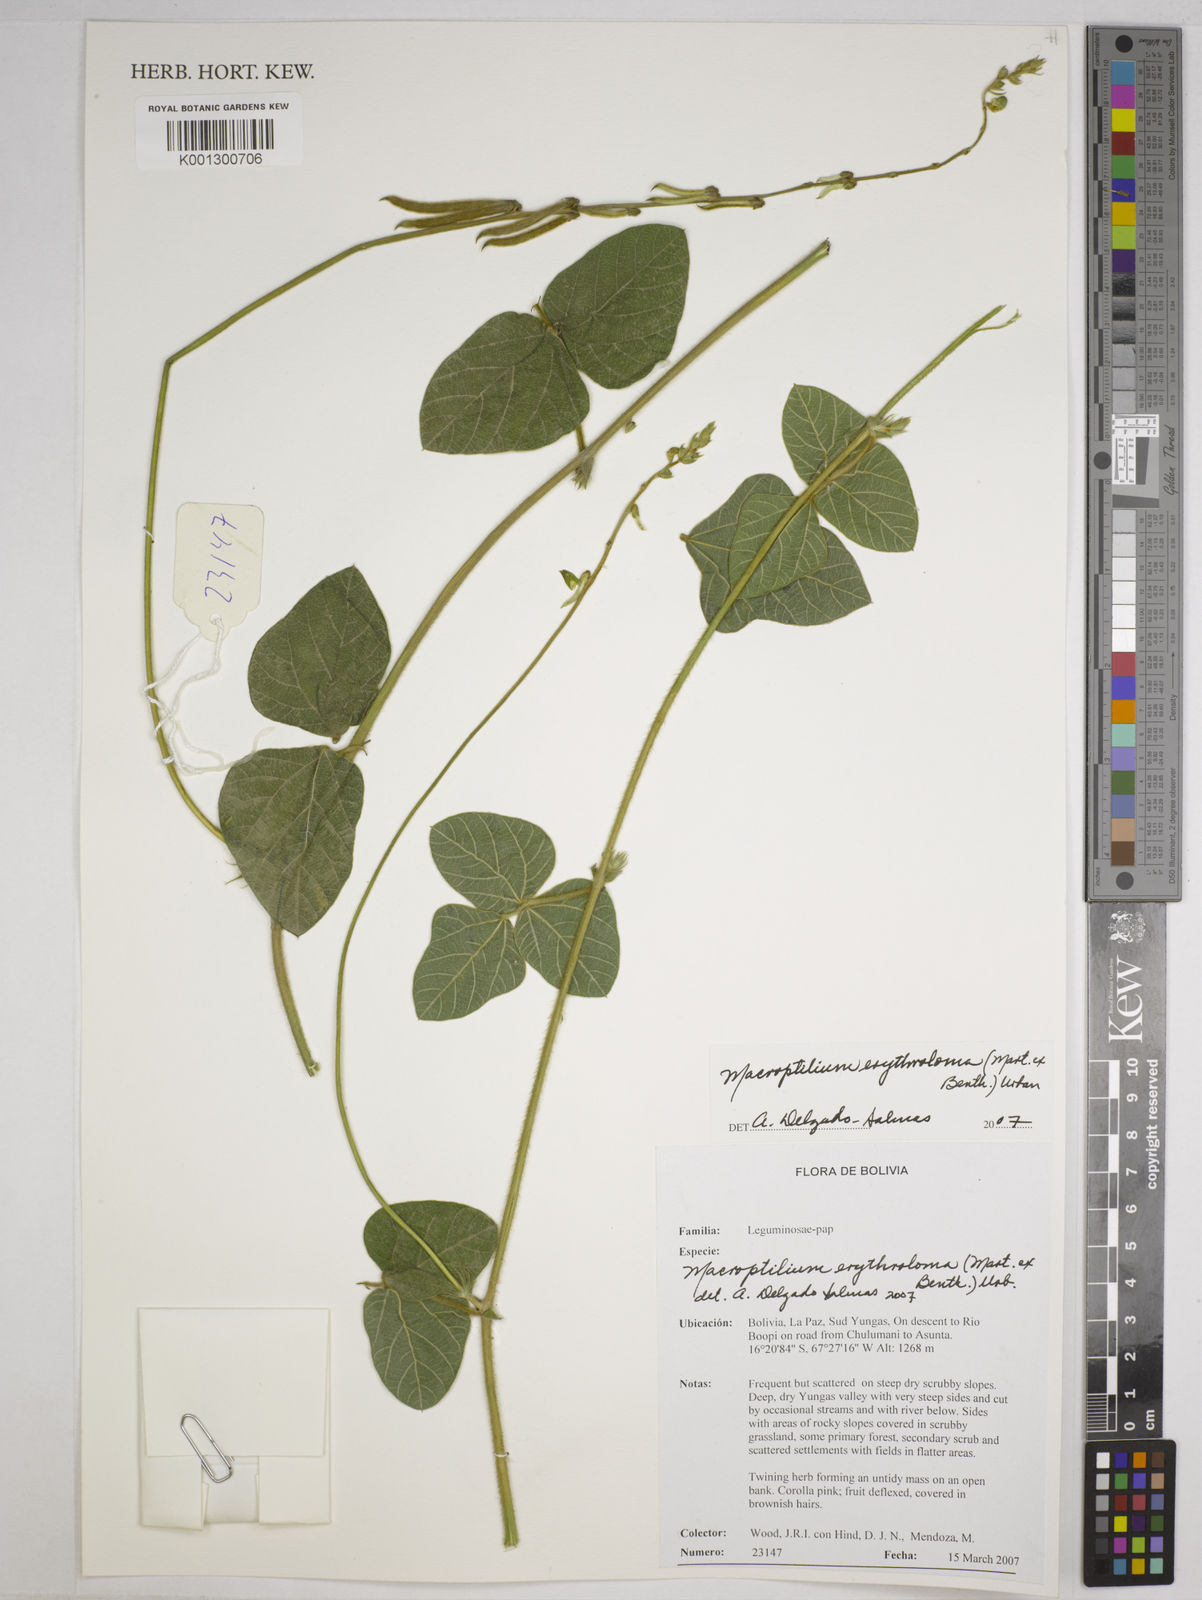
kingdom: Plantae
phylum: Tracheophyta
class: Magnoliopsida
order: Fabales
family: Fabaceae
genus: Macroptilium
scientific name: Macroptilium erythroloma
